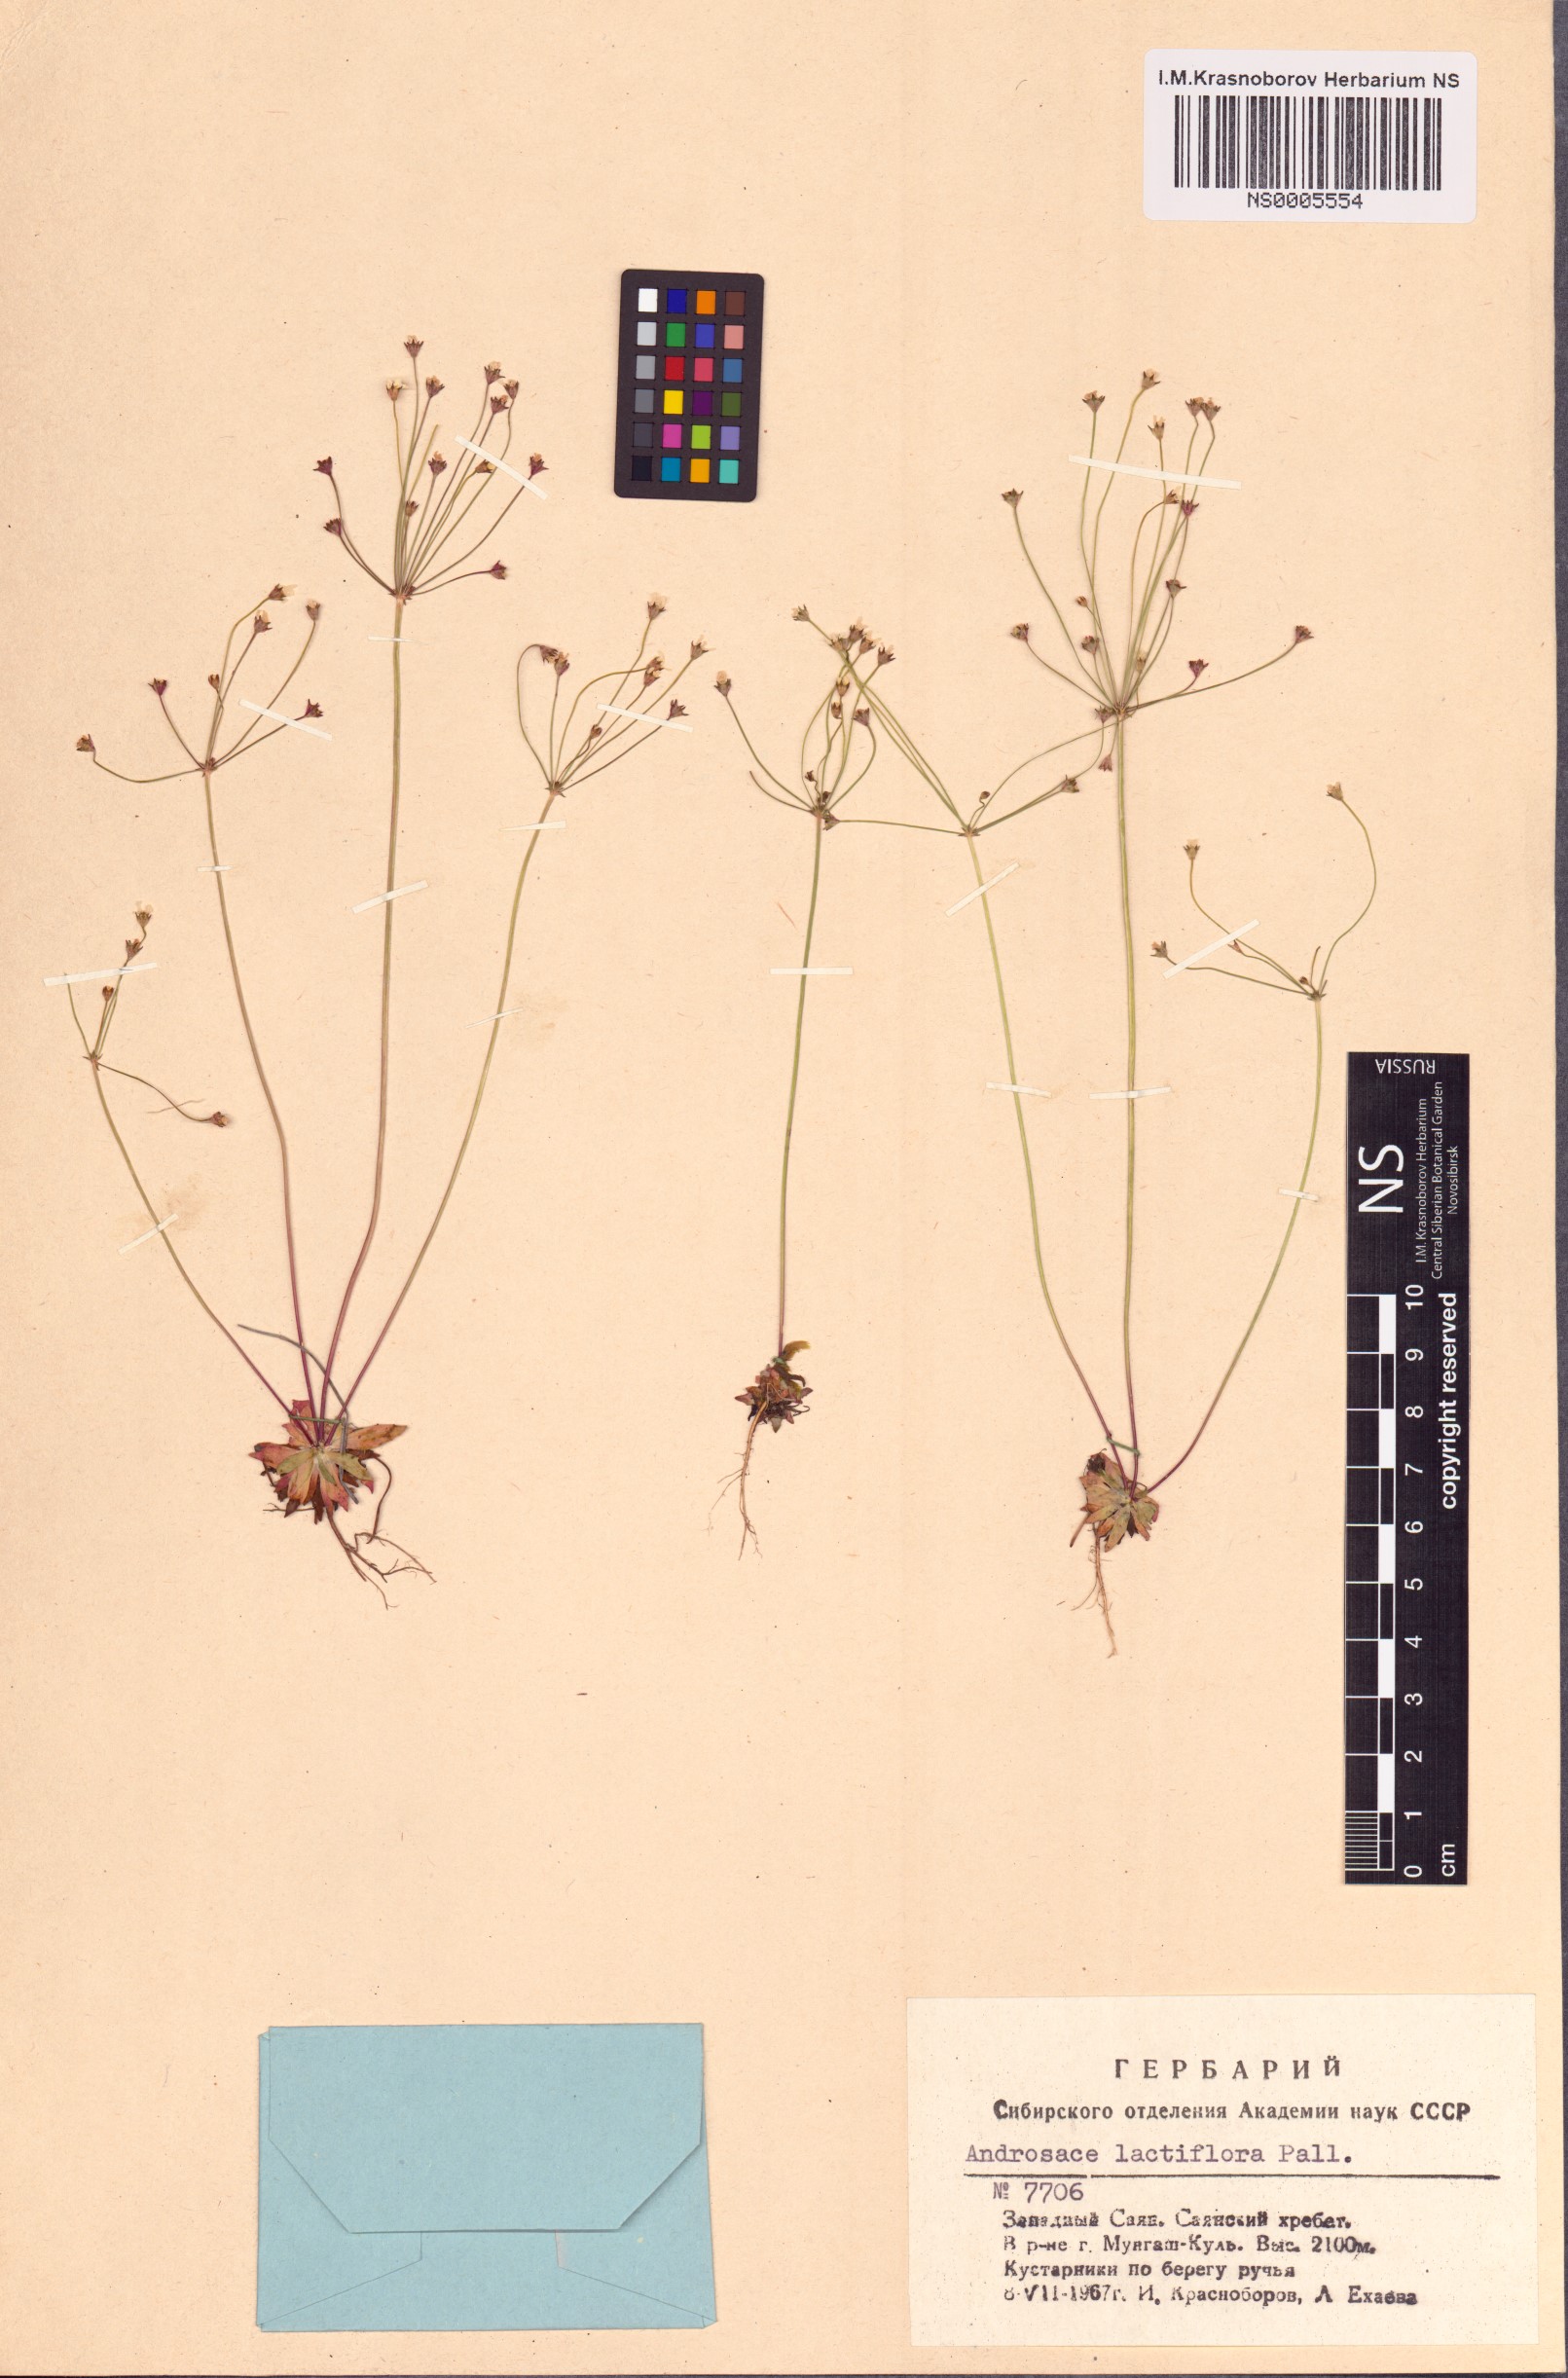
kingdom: Plantae
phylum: Tracheophyta
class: Magnoliopsida
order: Ericales
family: Primulaceae
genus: Androsace
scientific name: Androsace lactiflora
